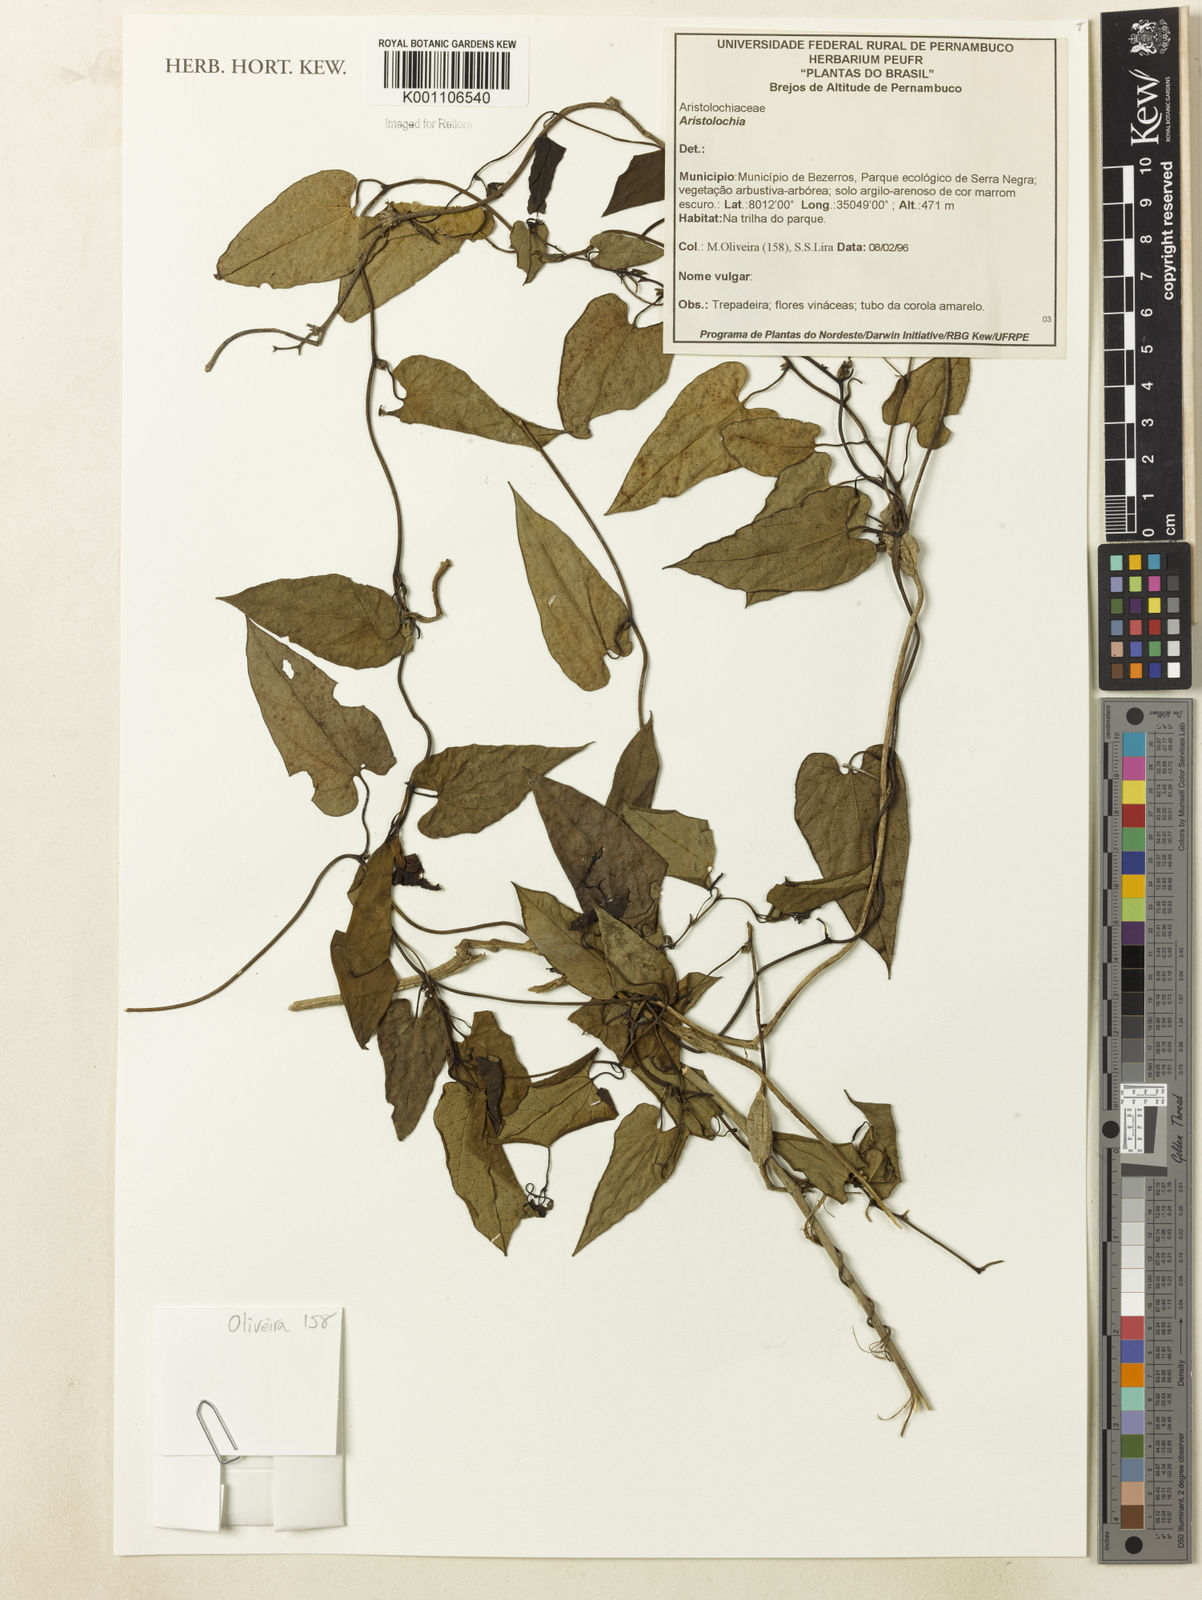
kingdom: Plantae
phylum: Tracheophyta
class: Magnoliopsida
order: Piperales
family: Aristolochiaceae
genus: Aristolochia
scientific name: Aristolochia
